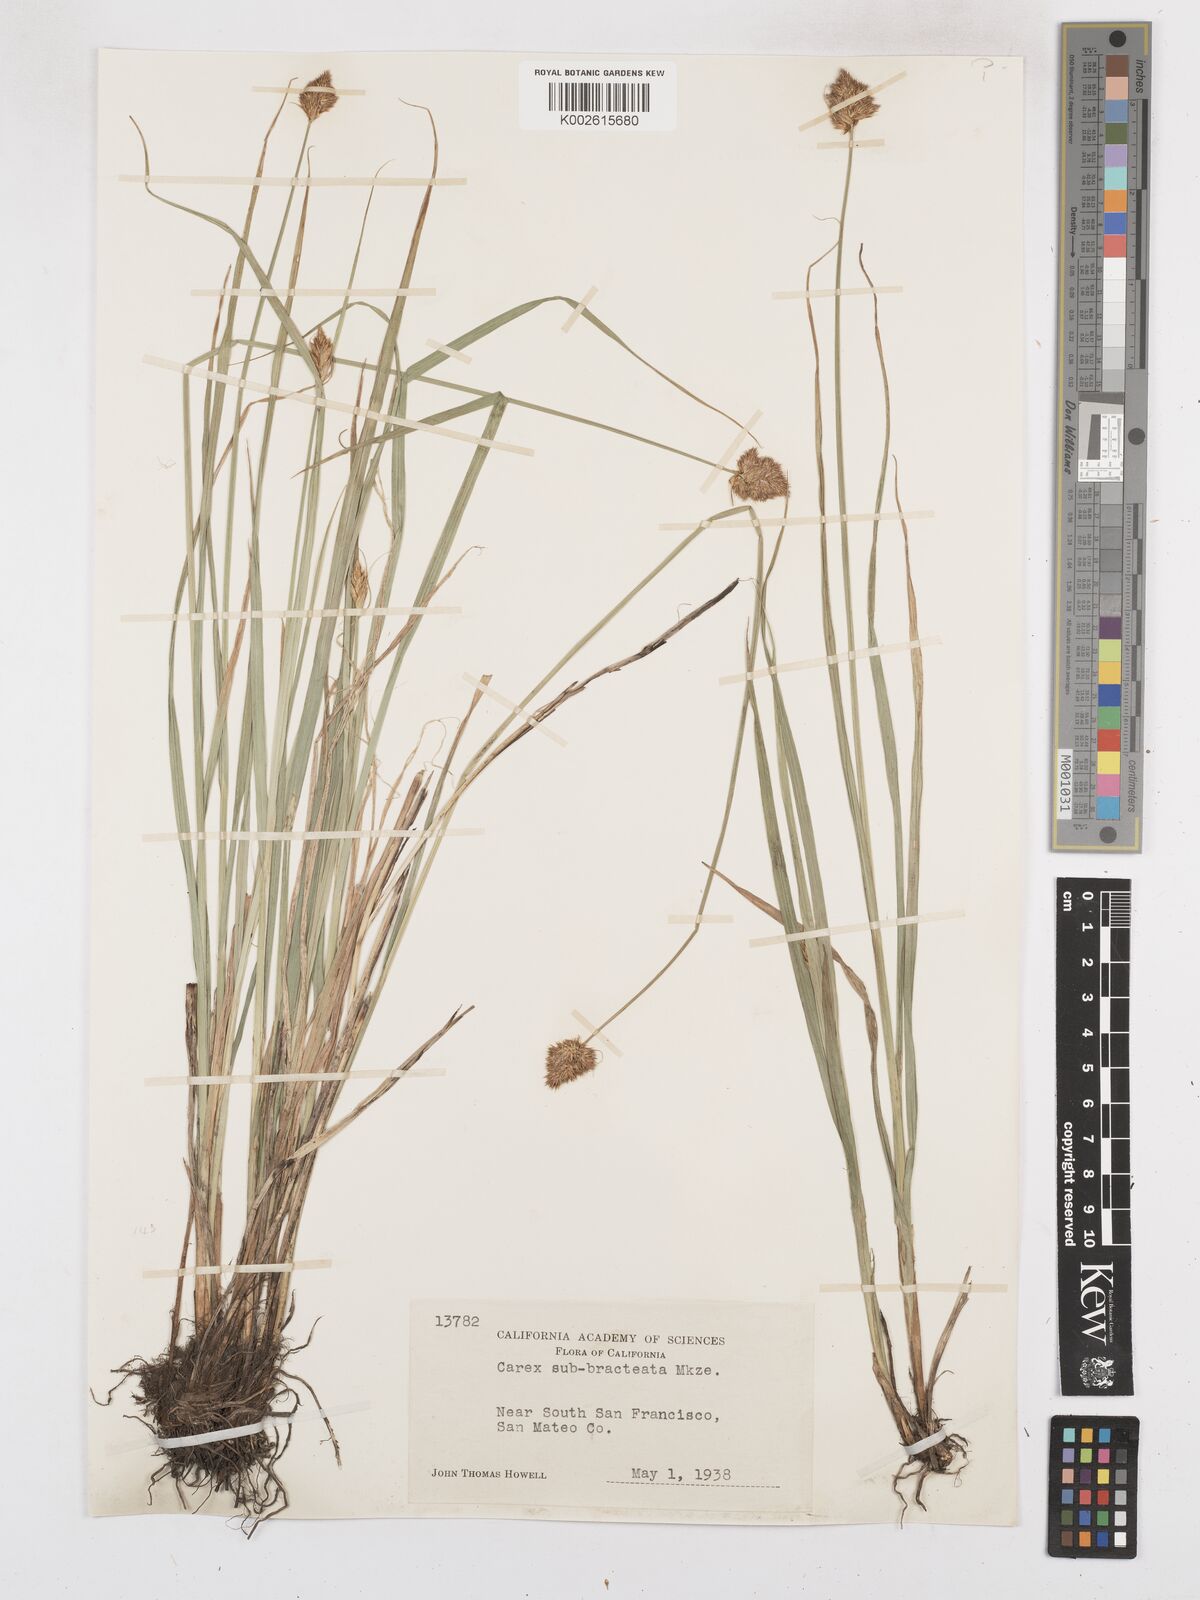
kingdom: Plantae
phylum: Tracheophyta
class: Liliopsida
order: Poales
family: Cyperaceae
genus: Carex
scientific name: Carex subbracteata
